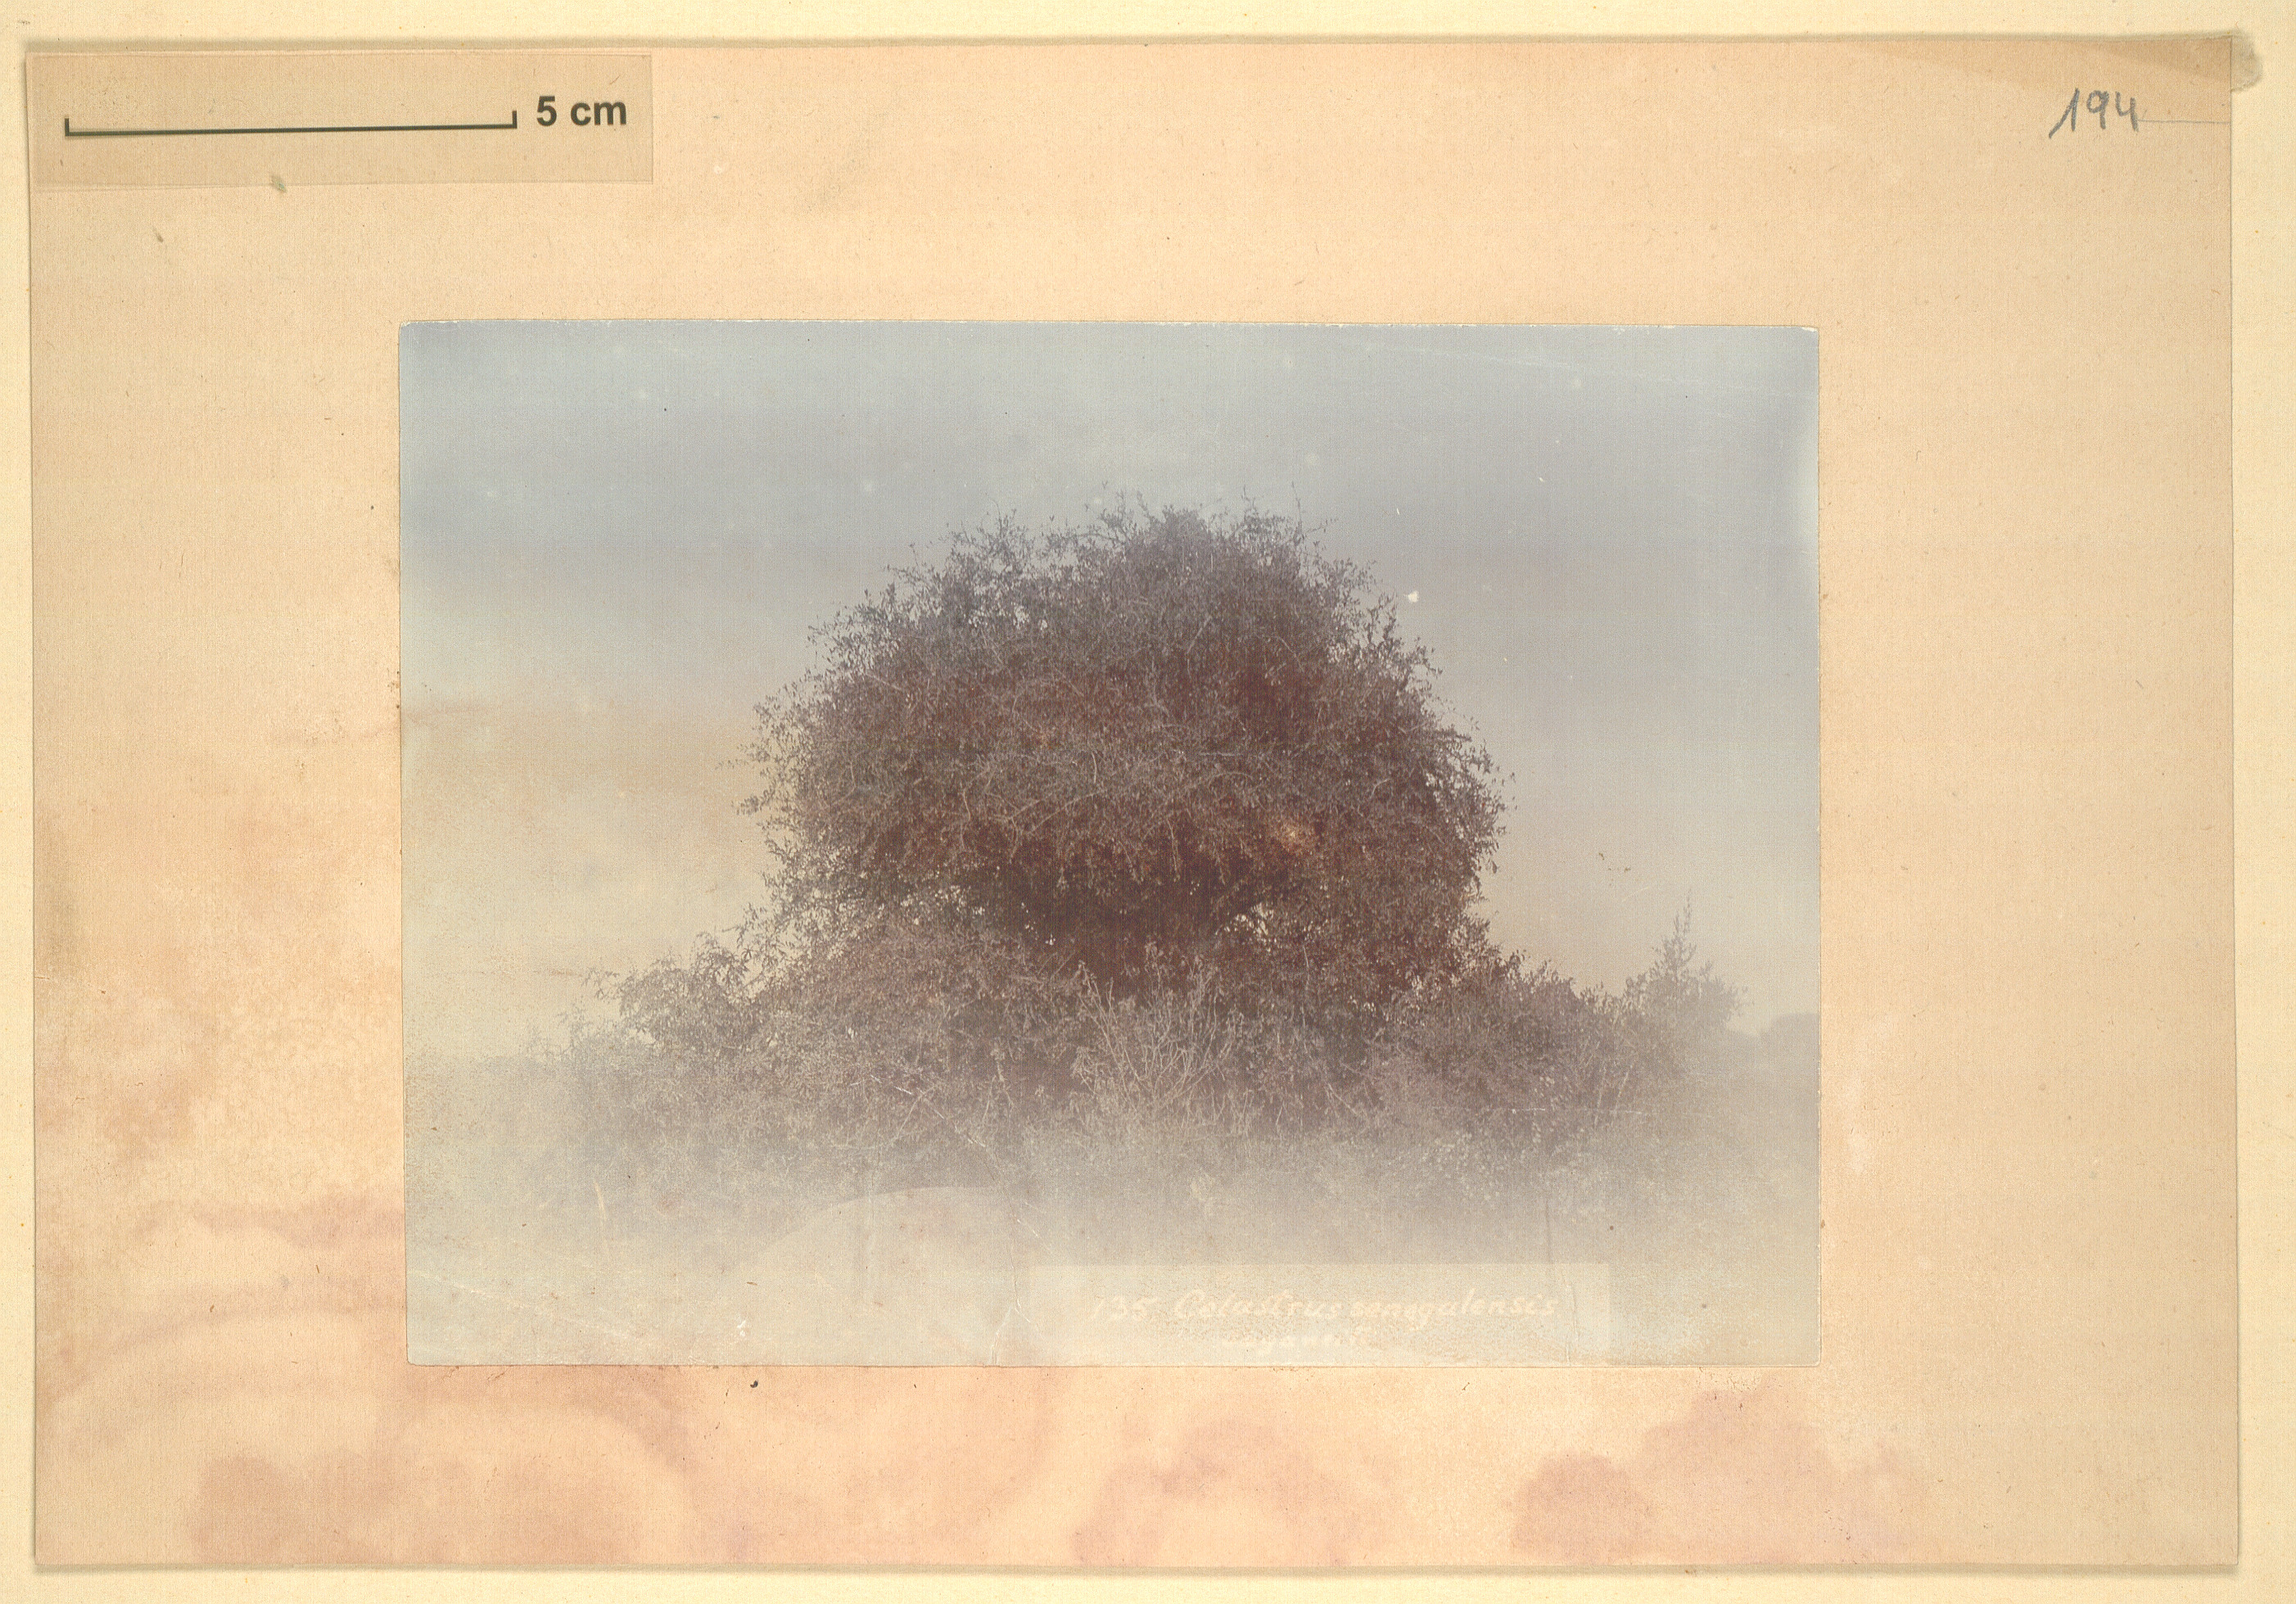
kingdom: Plantae
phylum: Tracheophyta
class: Magnoliopsida
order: Celastrales
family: Celastraceae
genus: Gymnosporia
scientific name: Gymnosporia senegalensis
